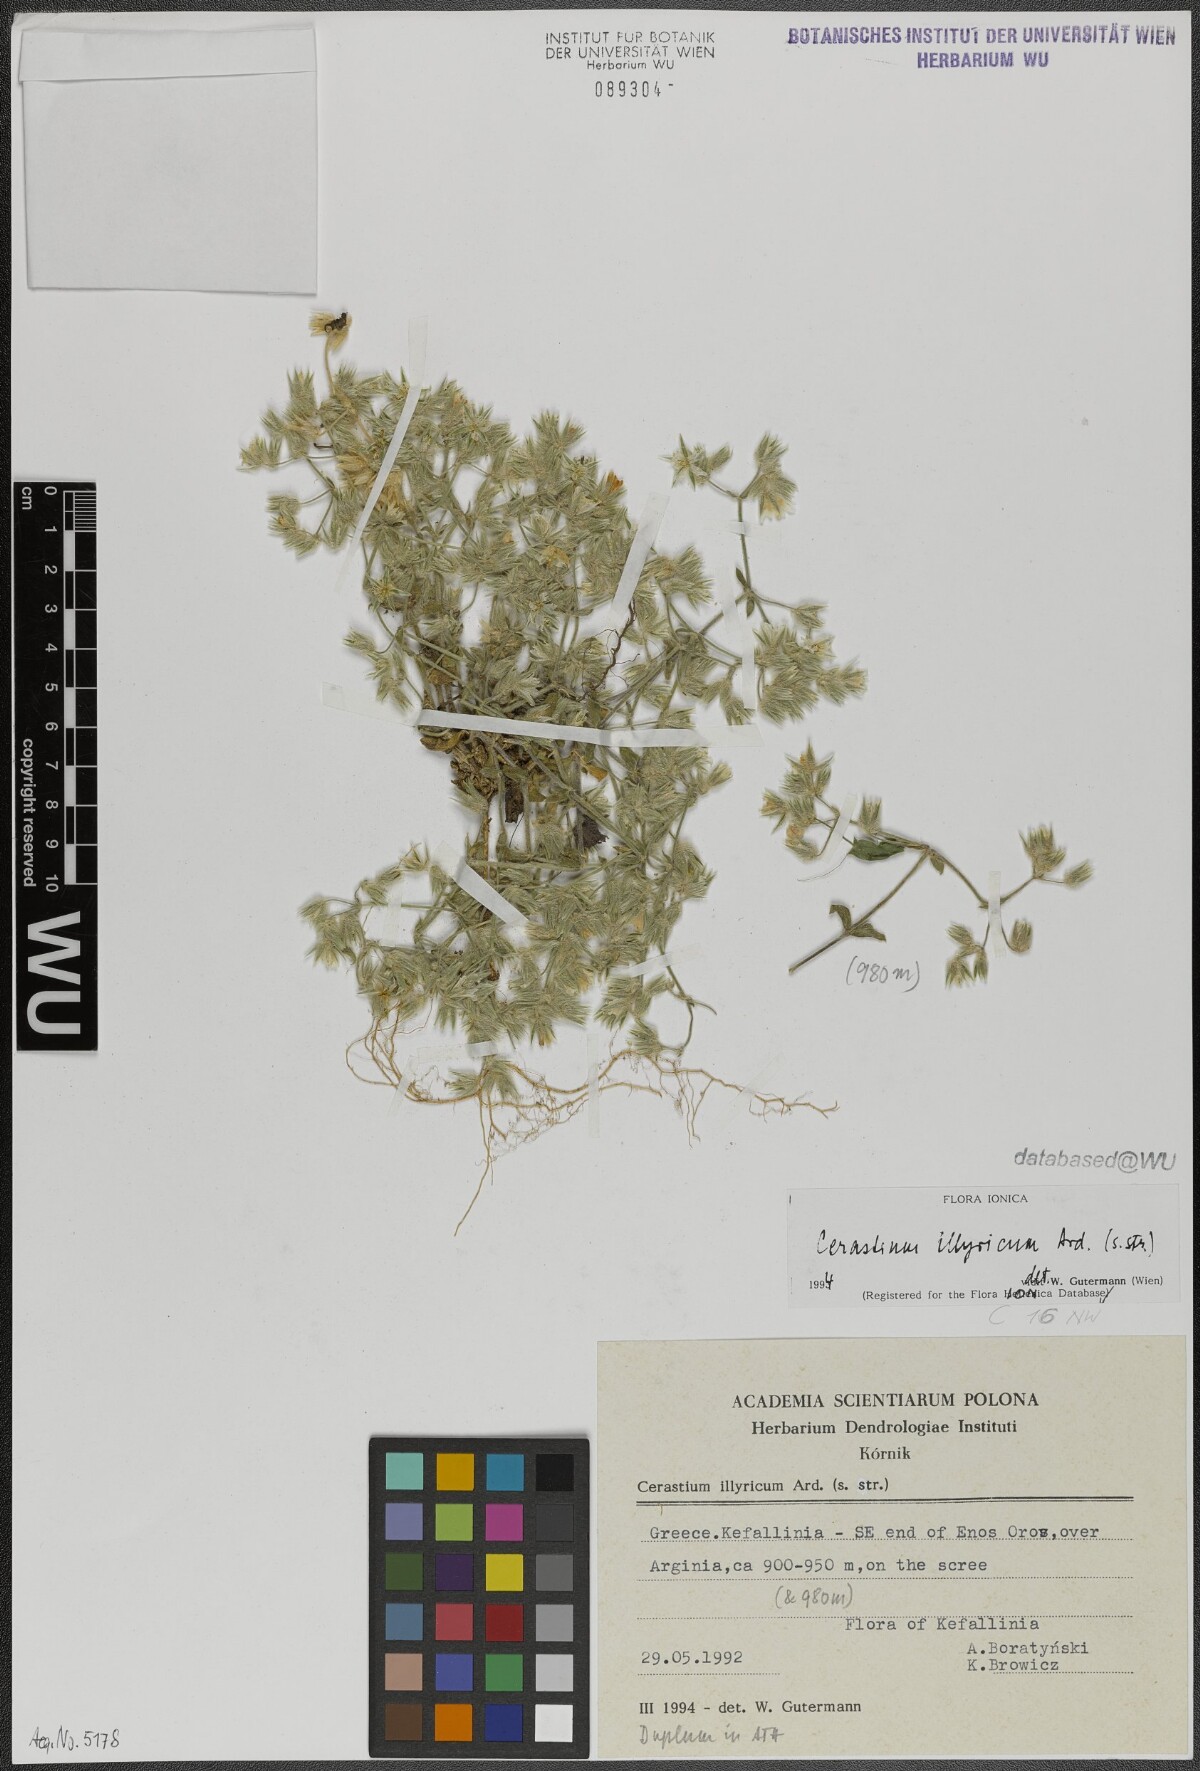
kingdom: Plantae
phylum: Tracheophyta
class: Magnoliopsida
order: Caryophyllales
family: Caryophyllaceae
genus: Cerastium
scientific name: Cerastium illyricum
